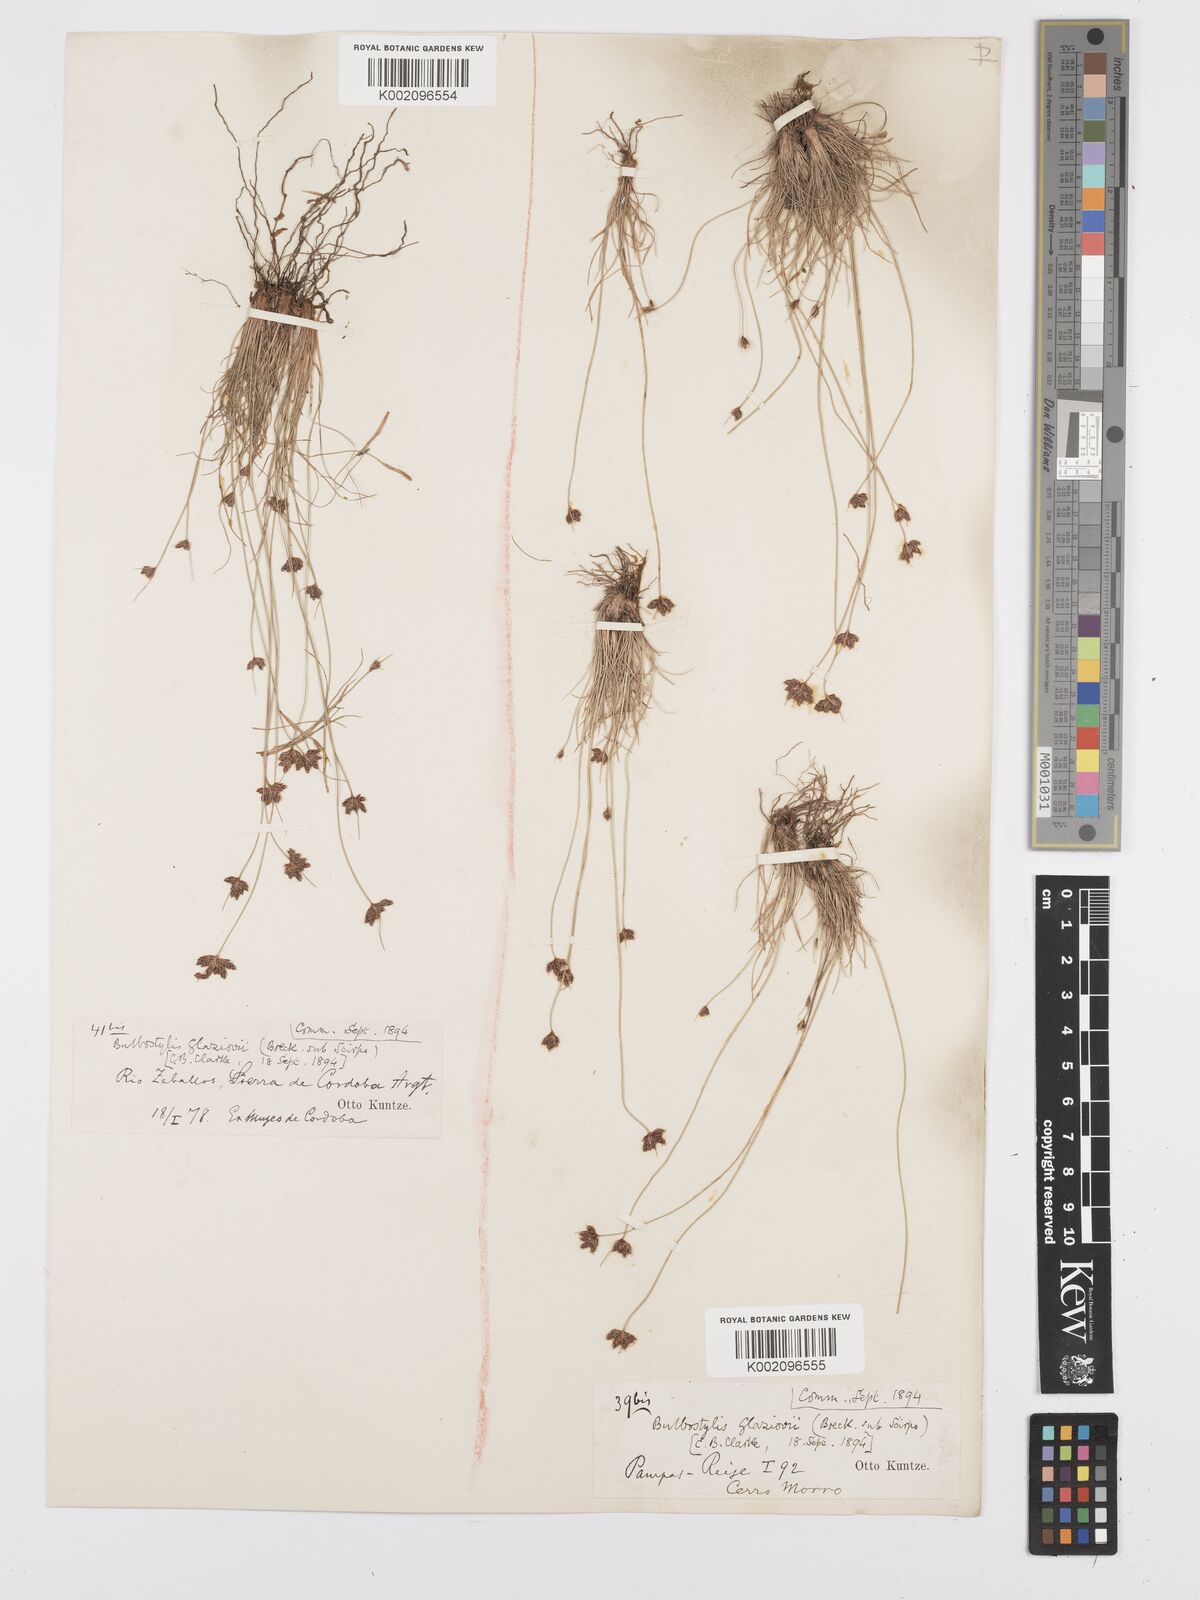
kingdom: Plantae
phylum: Tracheophyta
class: Liliopsida
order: Poales
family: Cyperaceae
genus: Bulbostylis
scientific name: Bulbostylis juncoides
